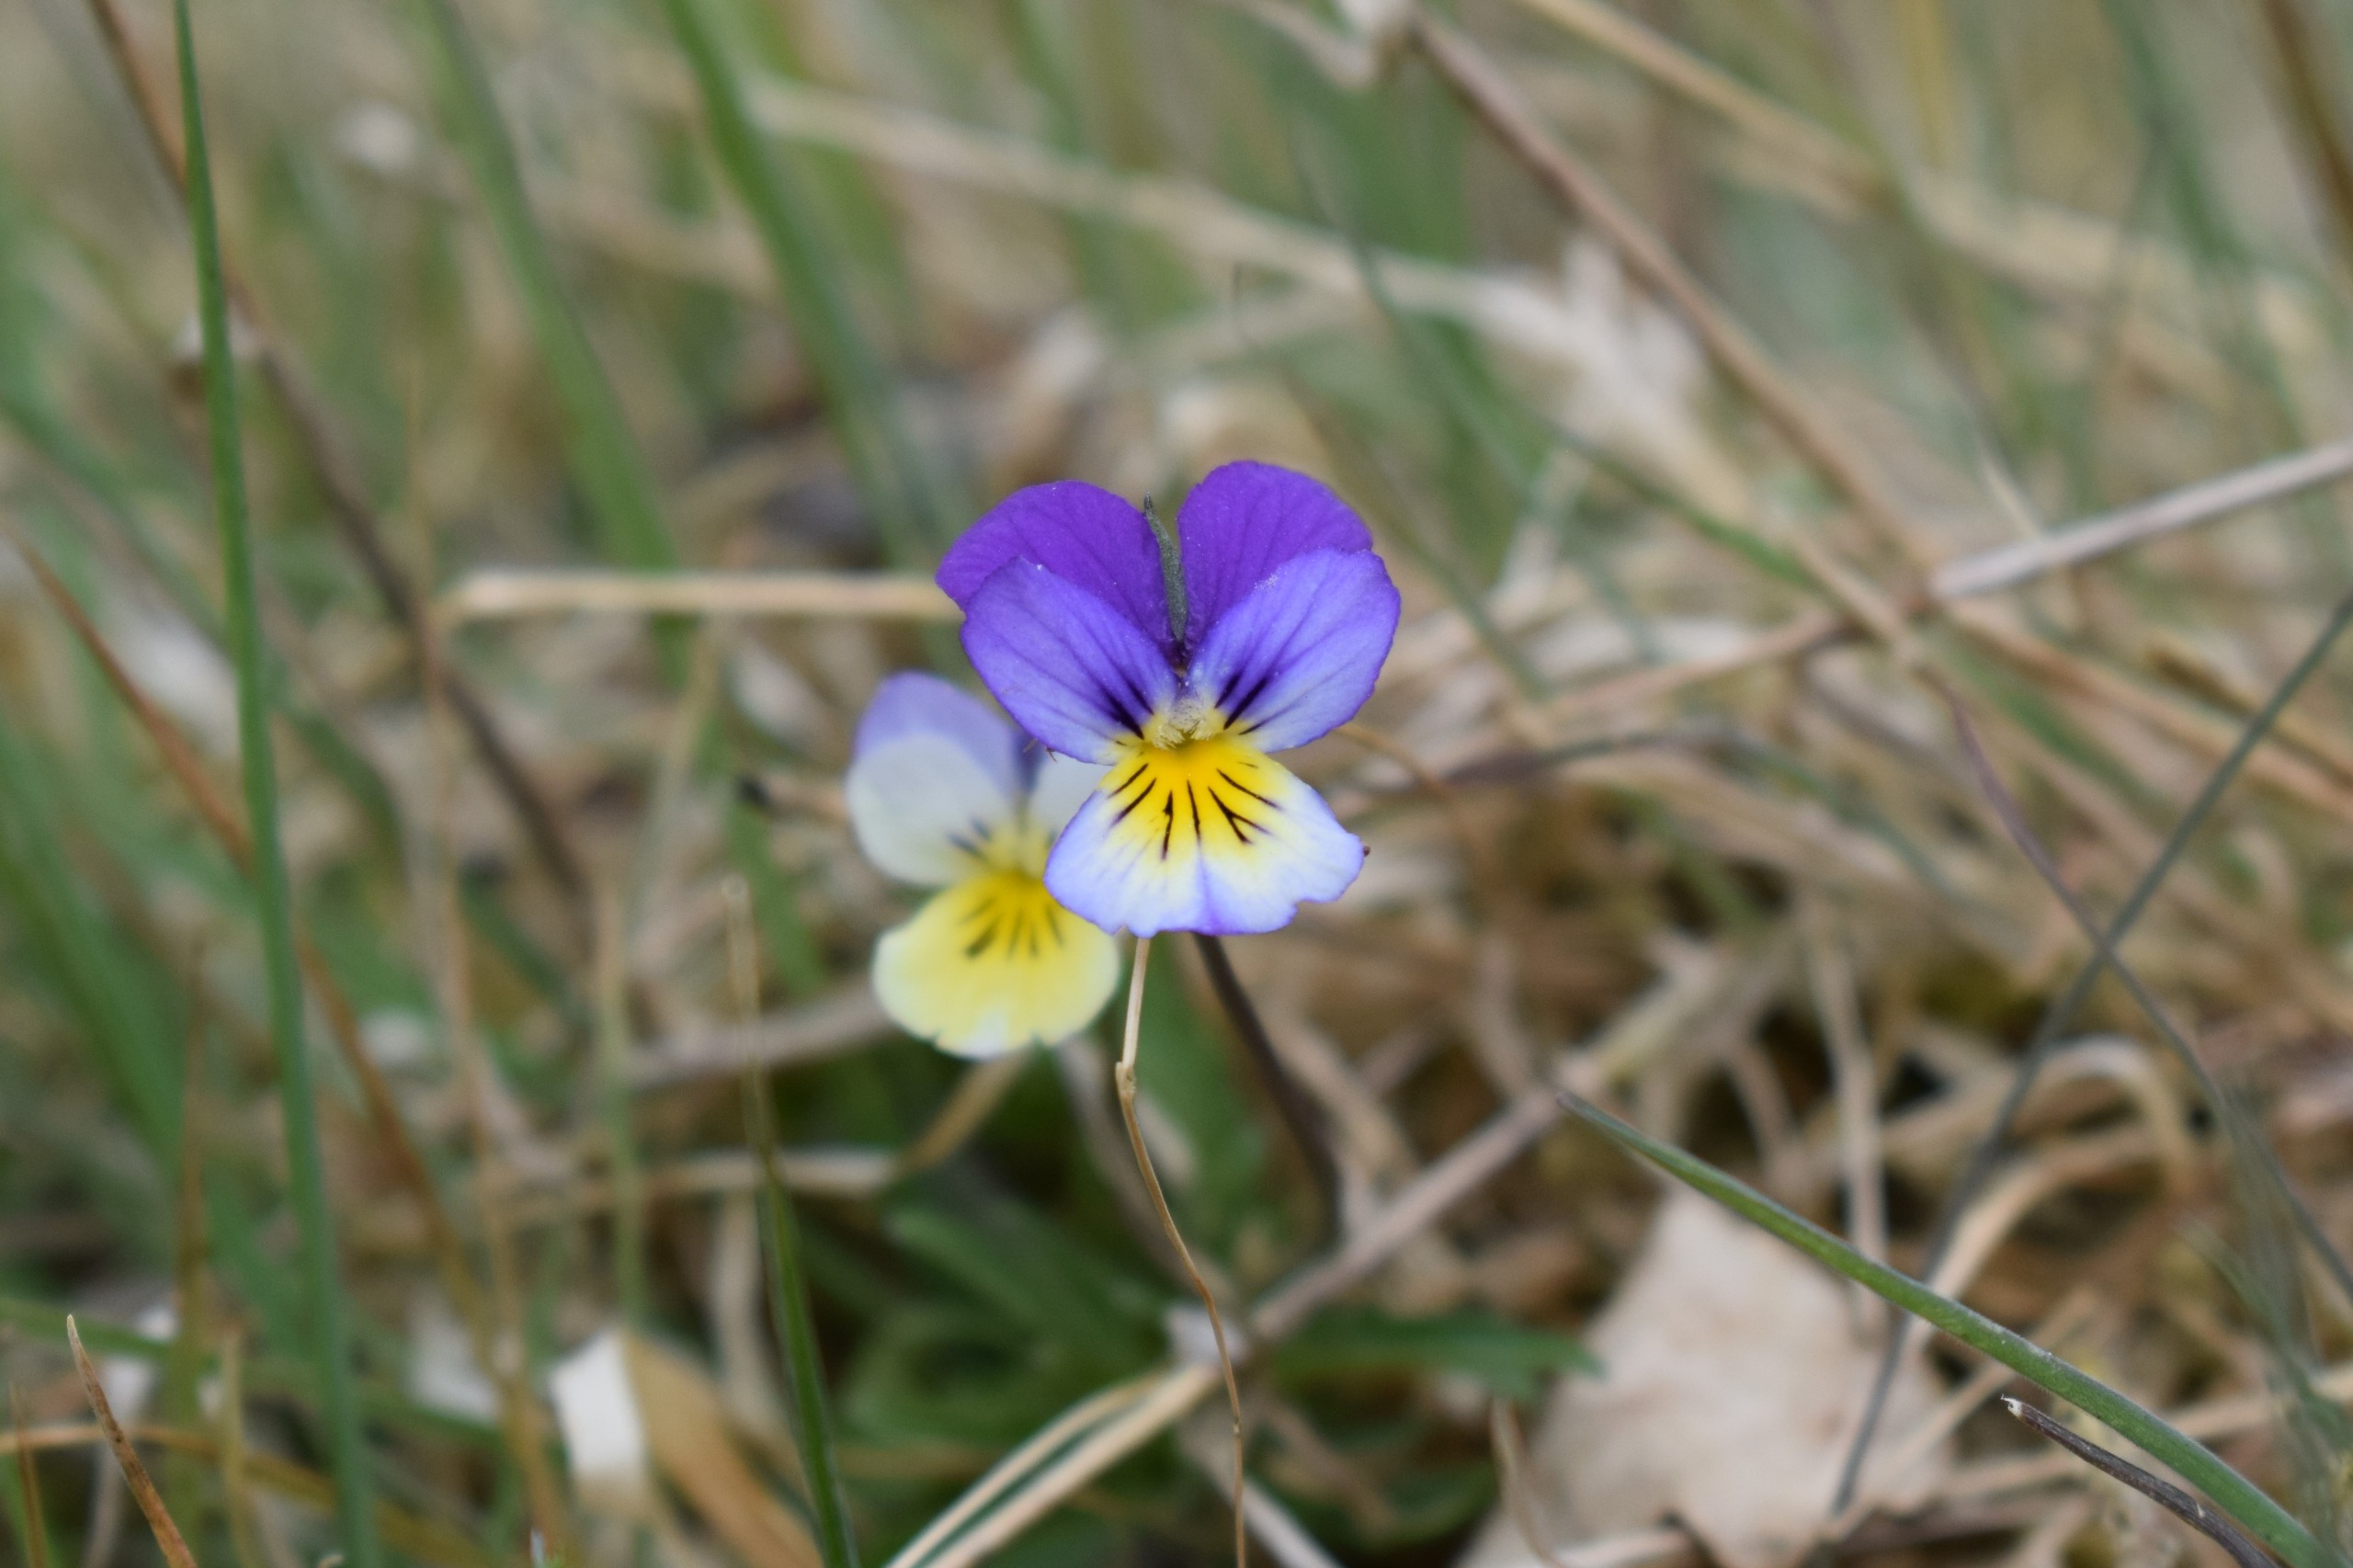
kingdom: Plantae
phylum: Tracheophyta
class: Magnoliopsida
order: Malpighiales
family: Violaceae
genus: Viola
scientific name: Viola tricolor
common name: Stedmoderblomst
